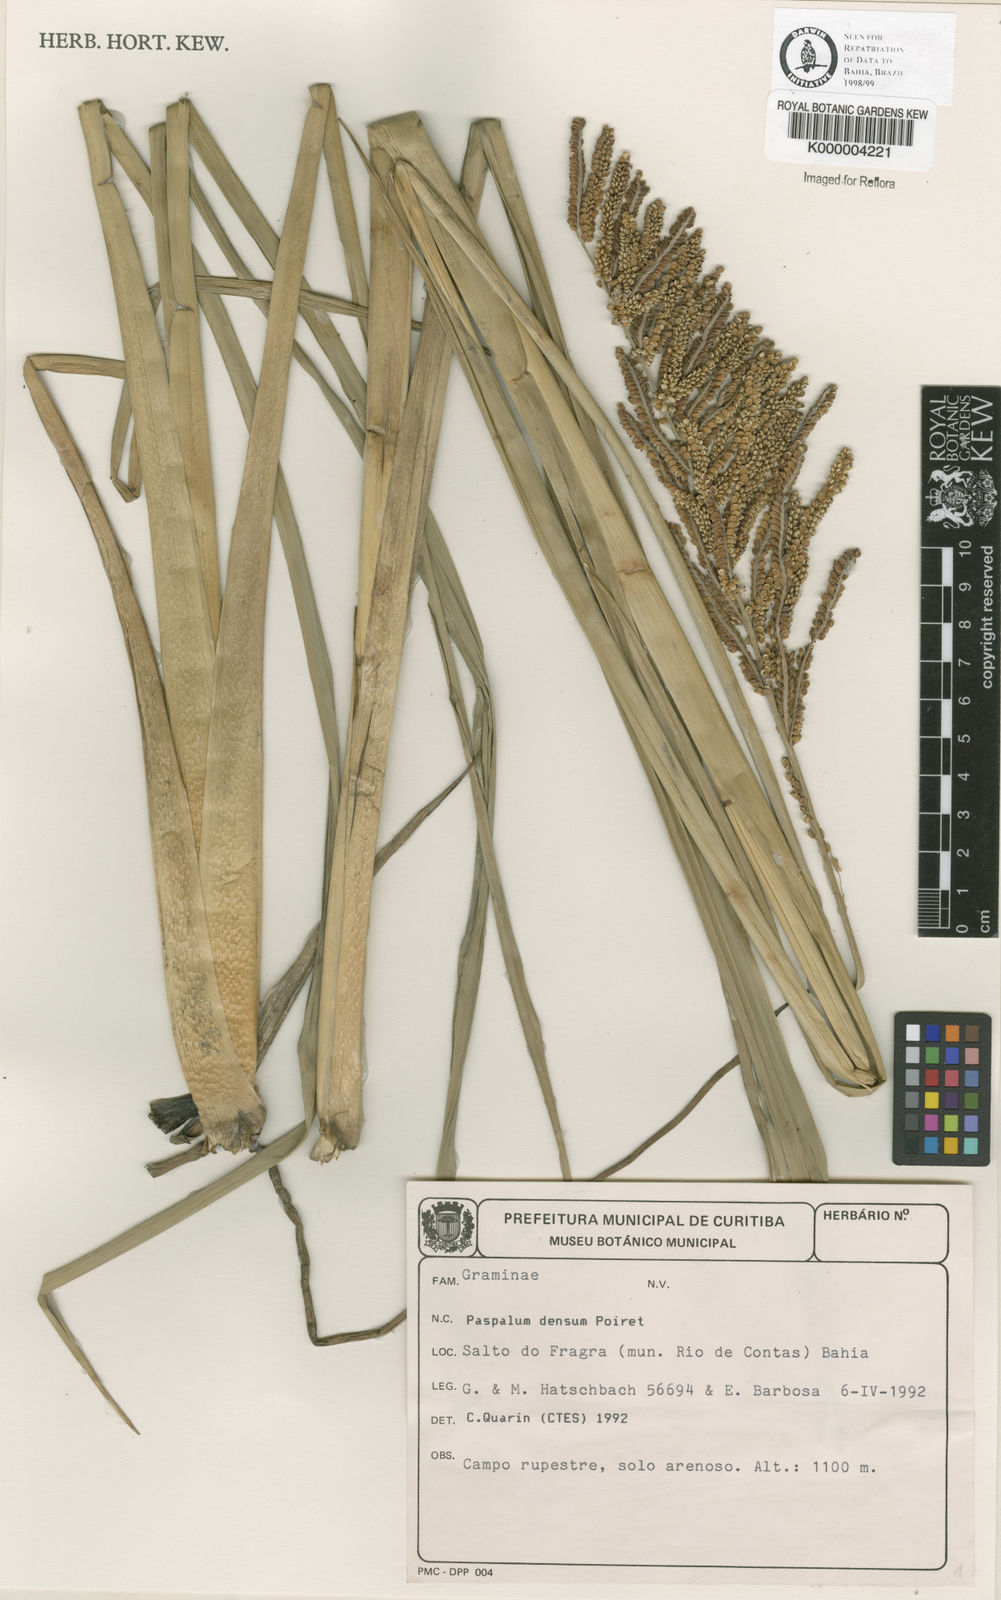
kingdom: Plantae
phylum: Tracheophyta
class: Liliopsida
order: Poales
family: Poaceae
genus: Paspalum
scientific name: Paspalum densum
